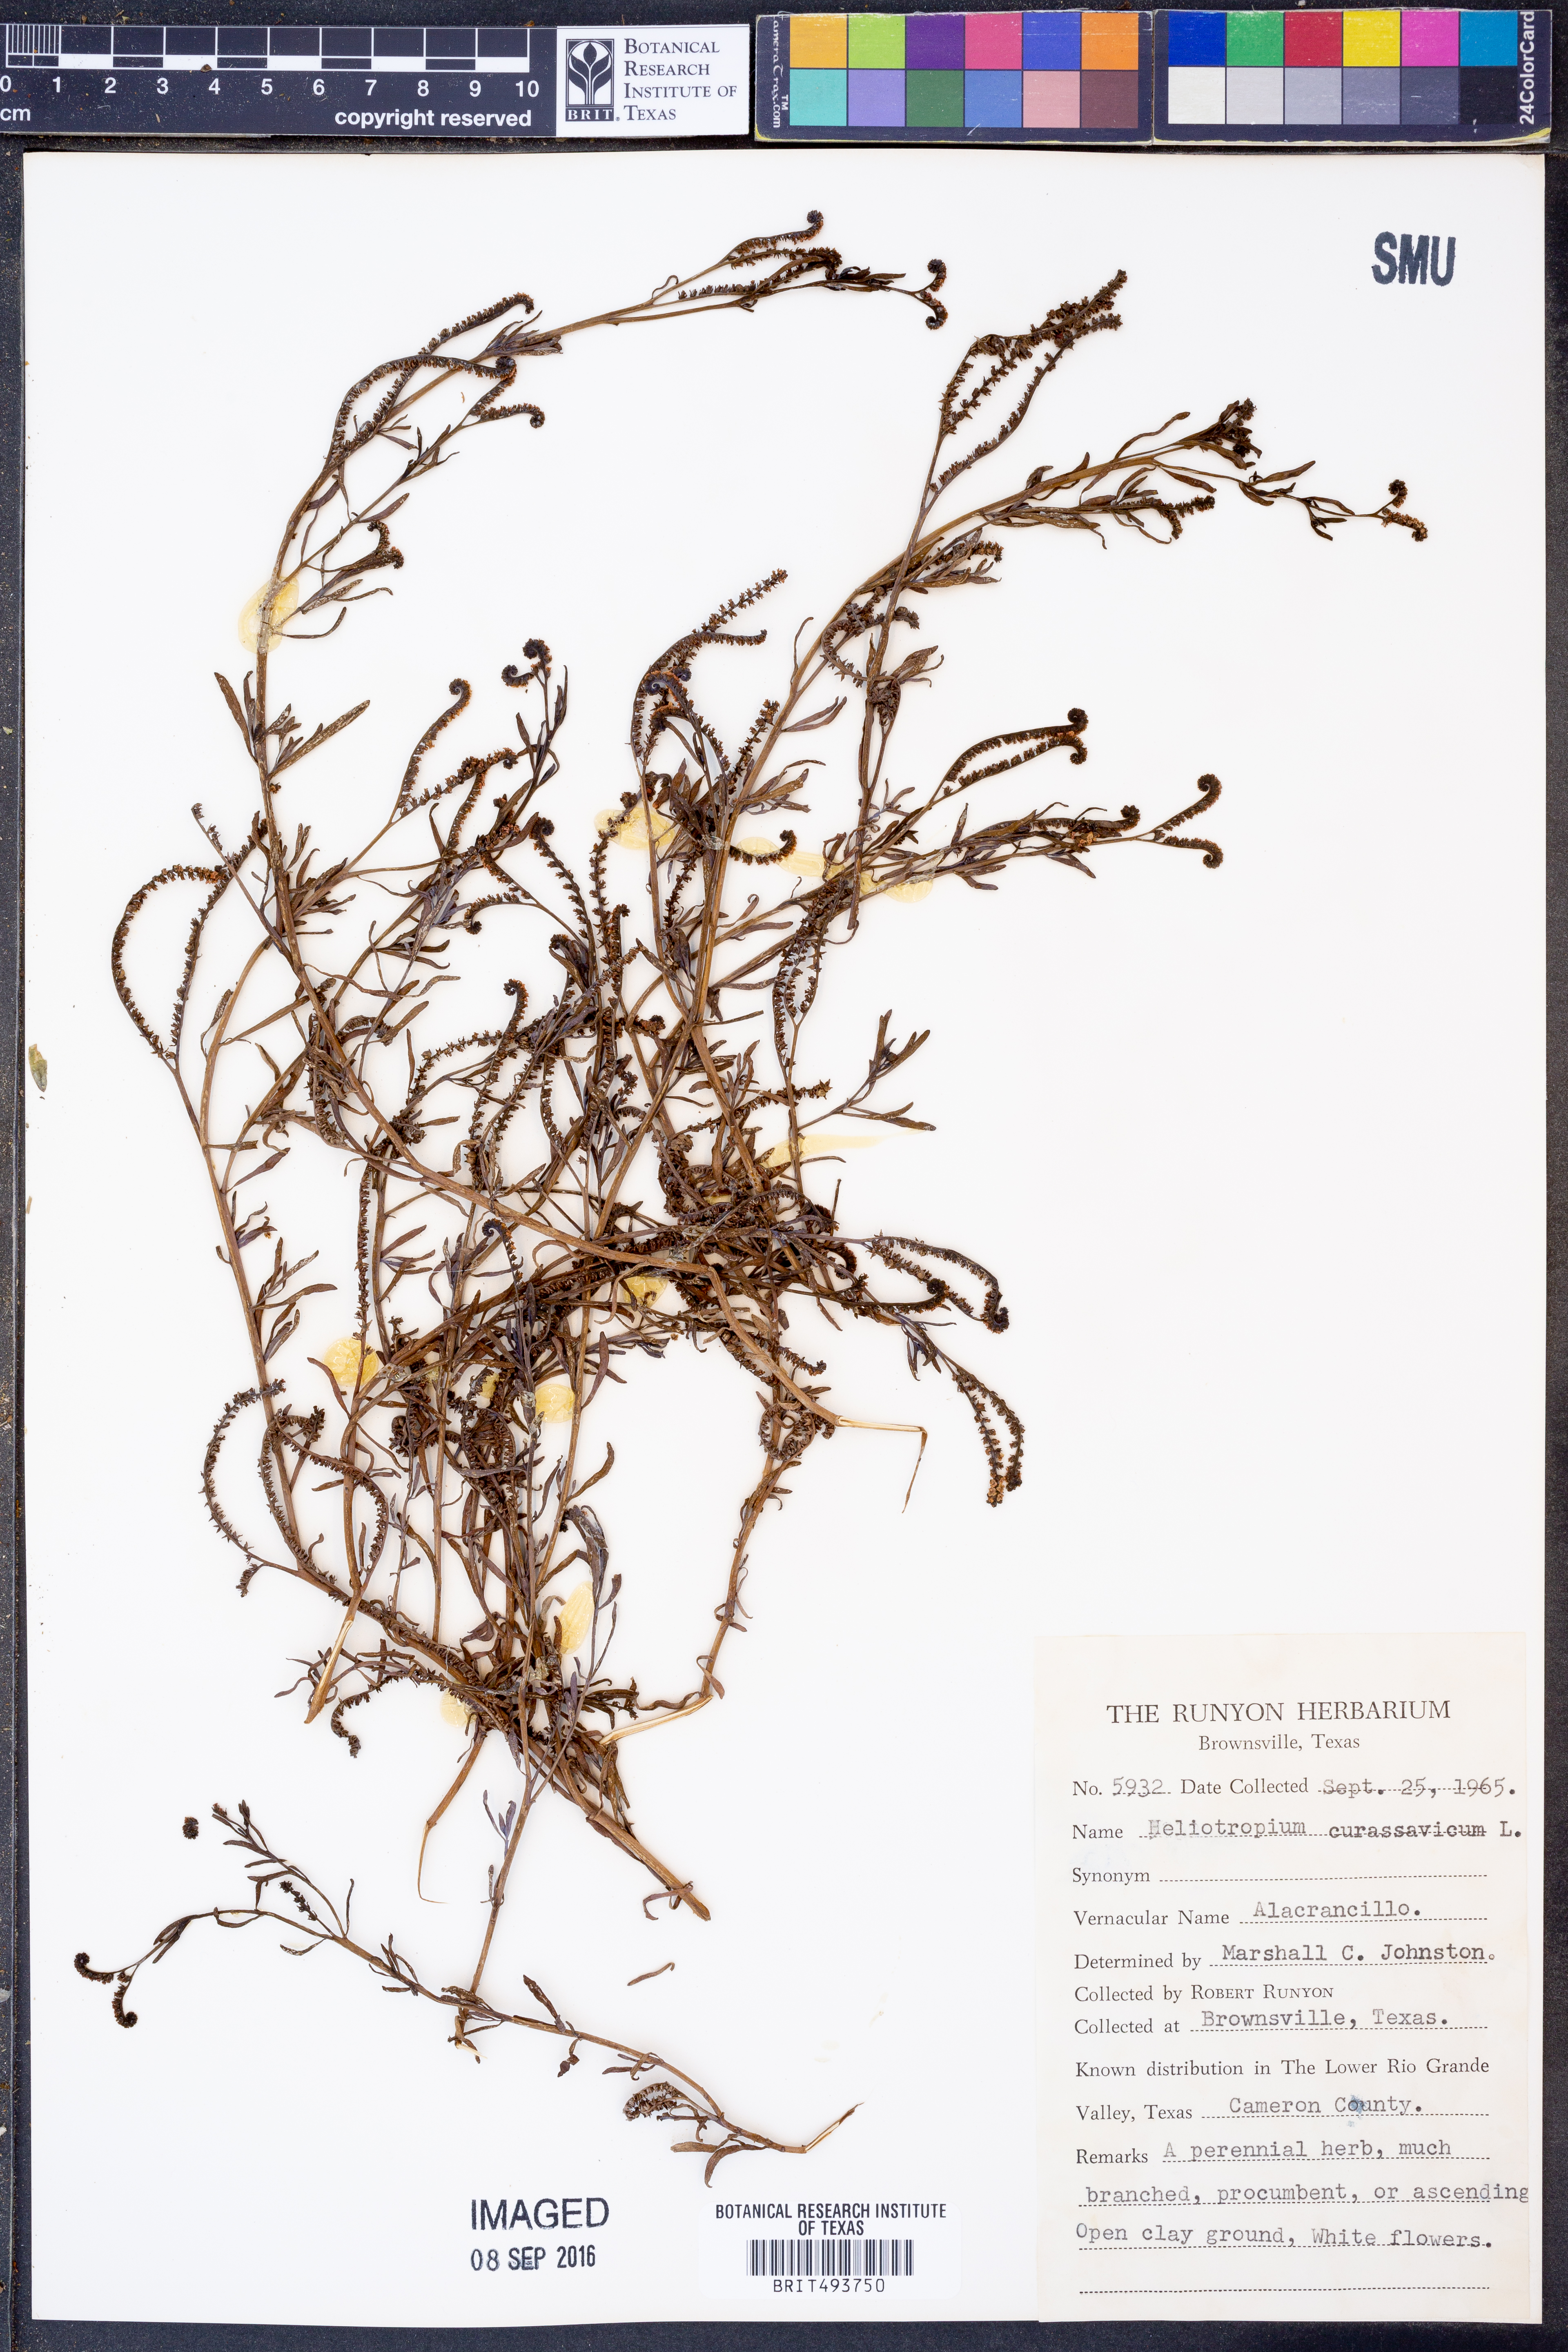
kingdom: Plantae
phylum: Tracheophyta
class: Magnoliopsida
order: Boraginales
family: Heliotropiaceae
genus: Heliotropium
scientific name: Heliotropium curassavicum
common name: Seaside heliotrope
